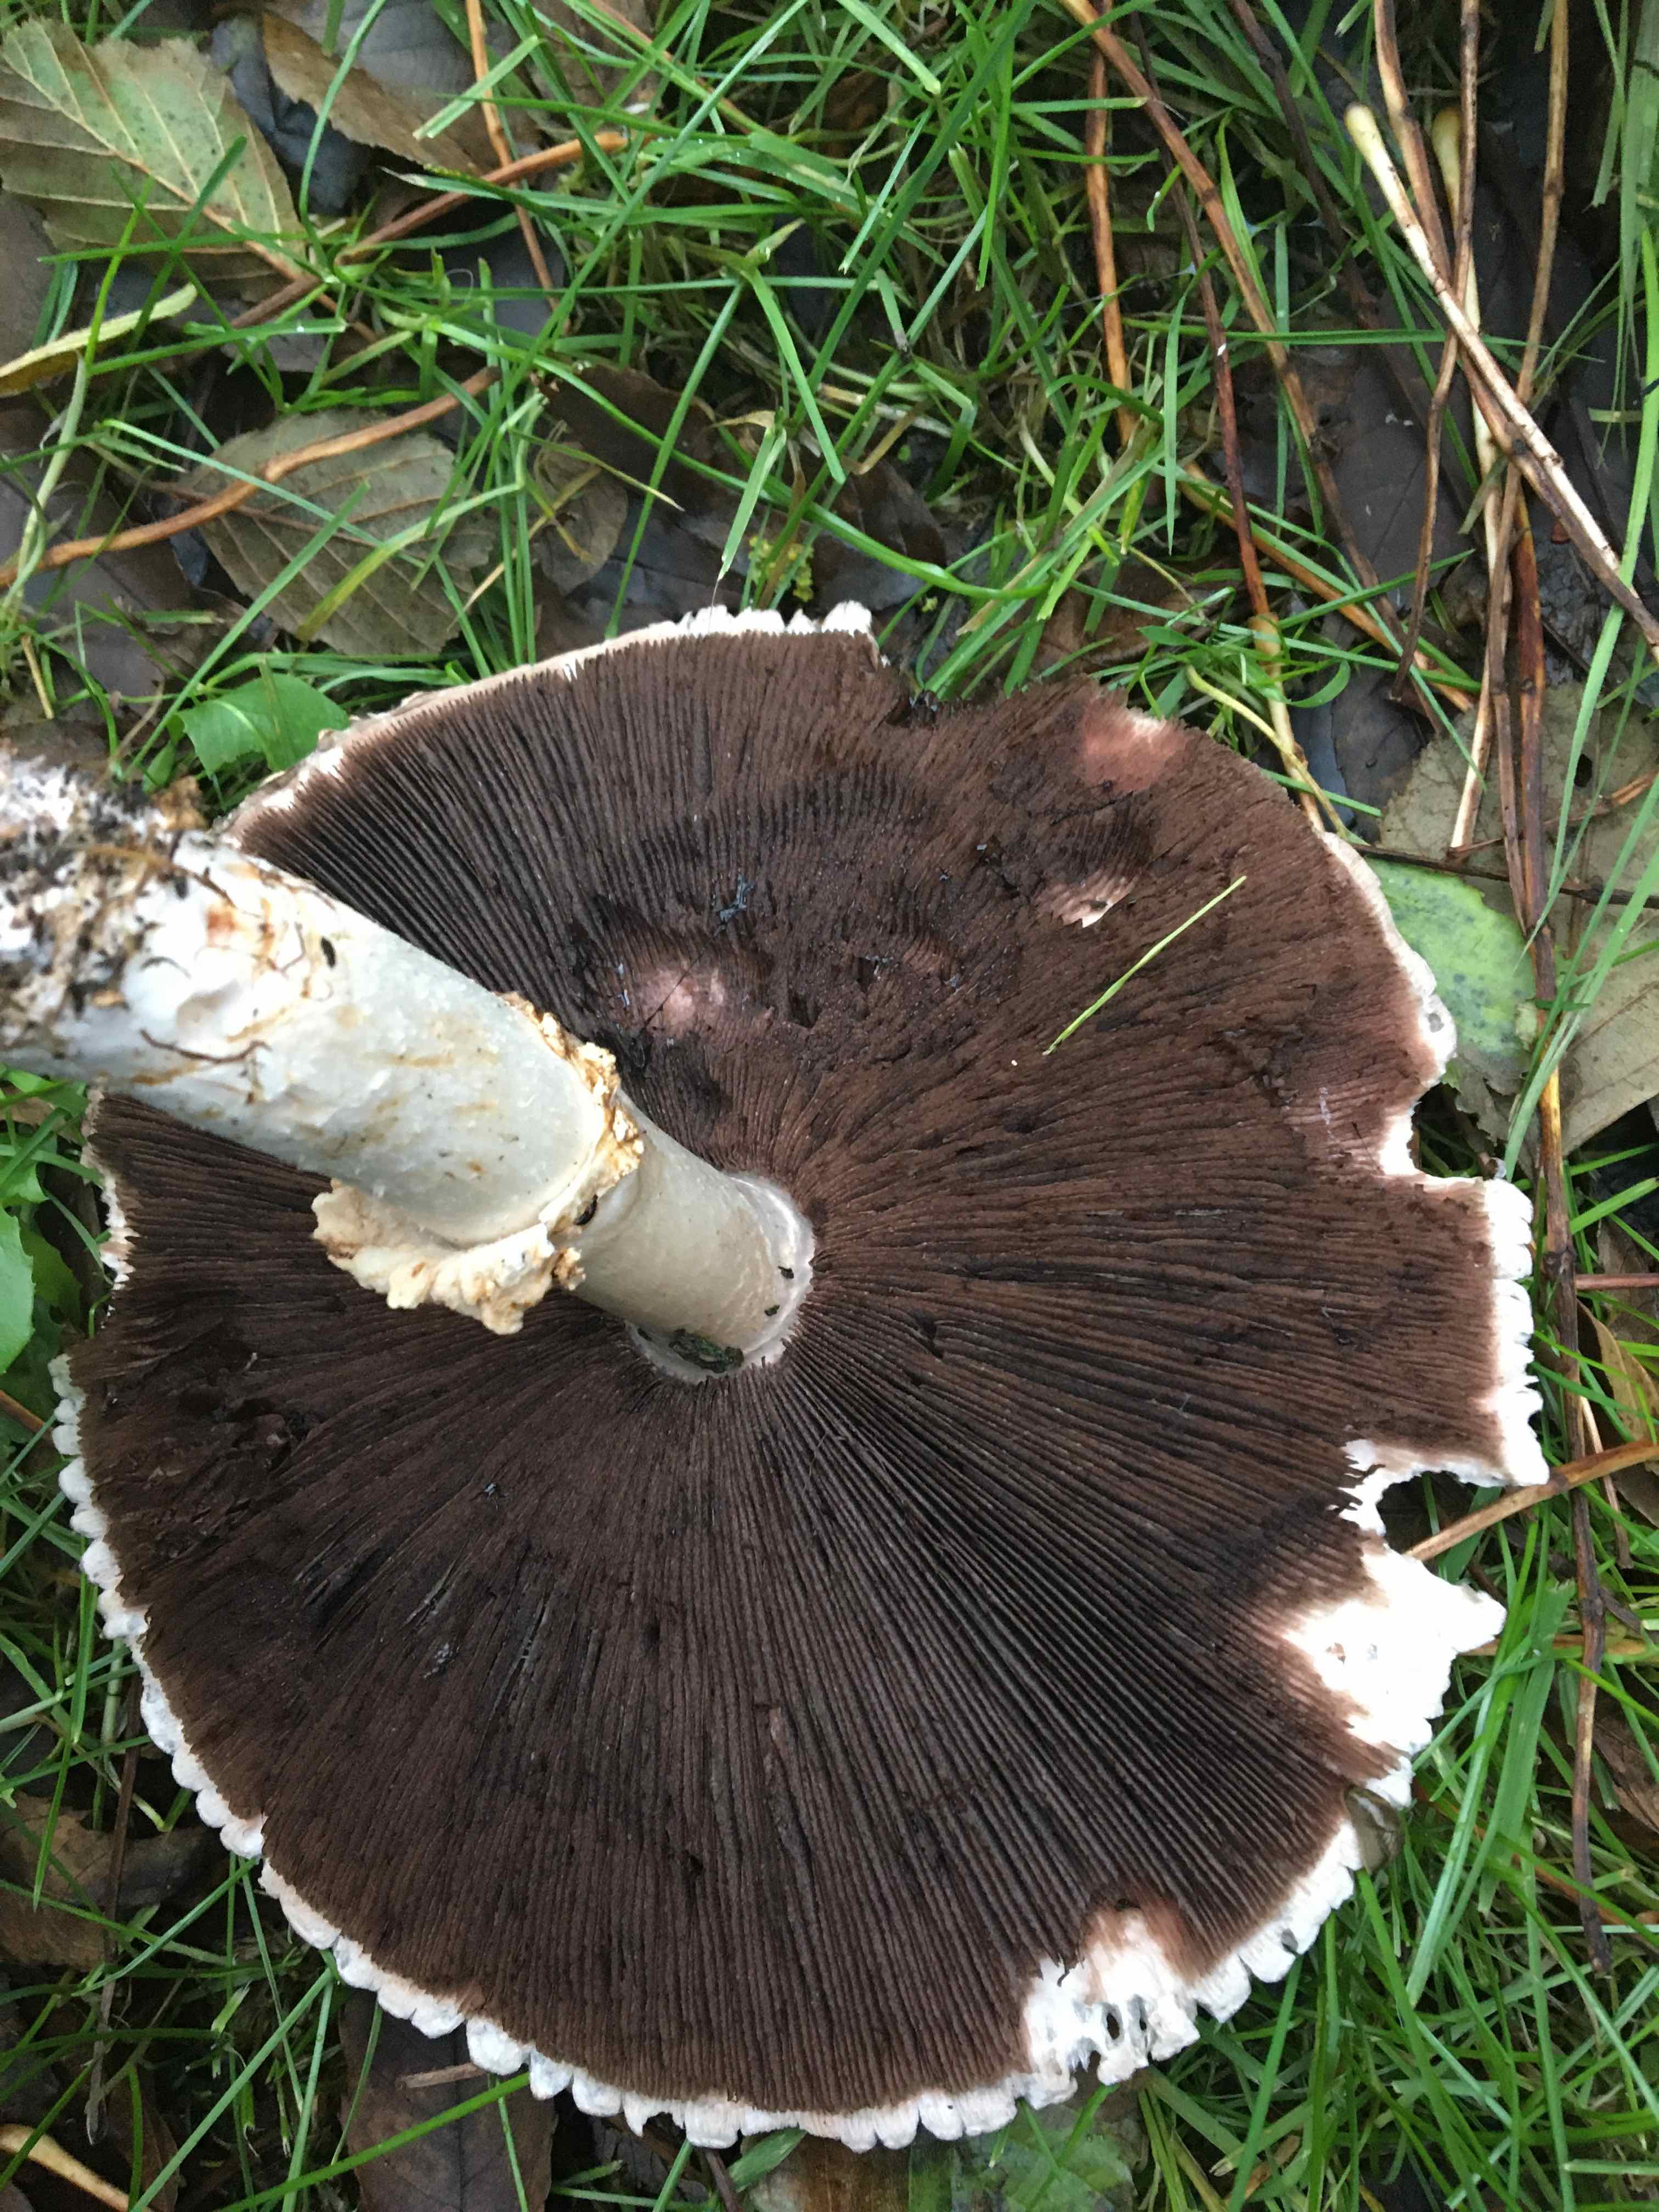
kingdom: Fungi
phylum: Basidiomycota
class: Agaricomycetes
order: Agaricales
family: Agaricaceae
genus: Agaricus
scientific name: Agaricus
